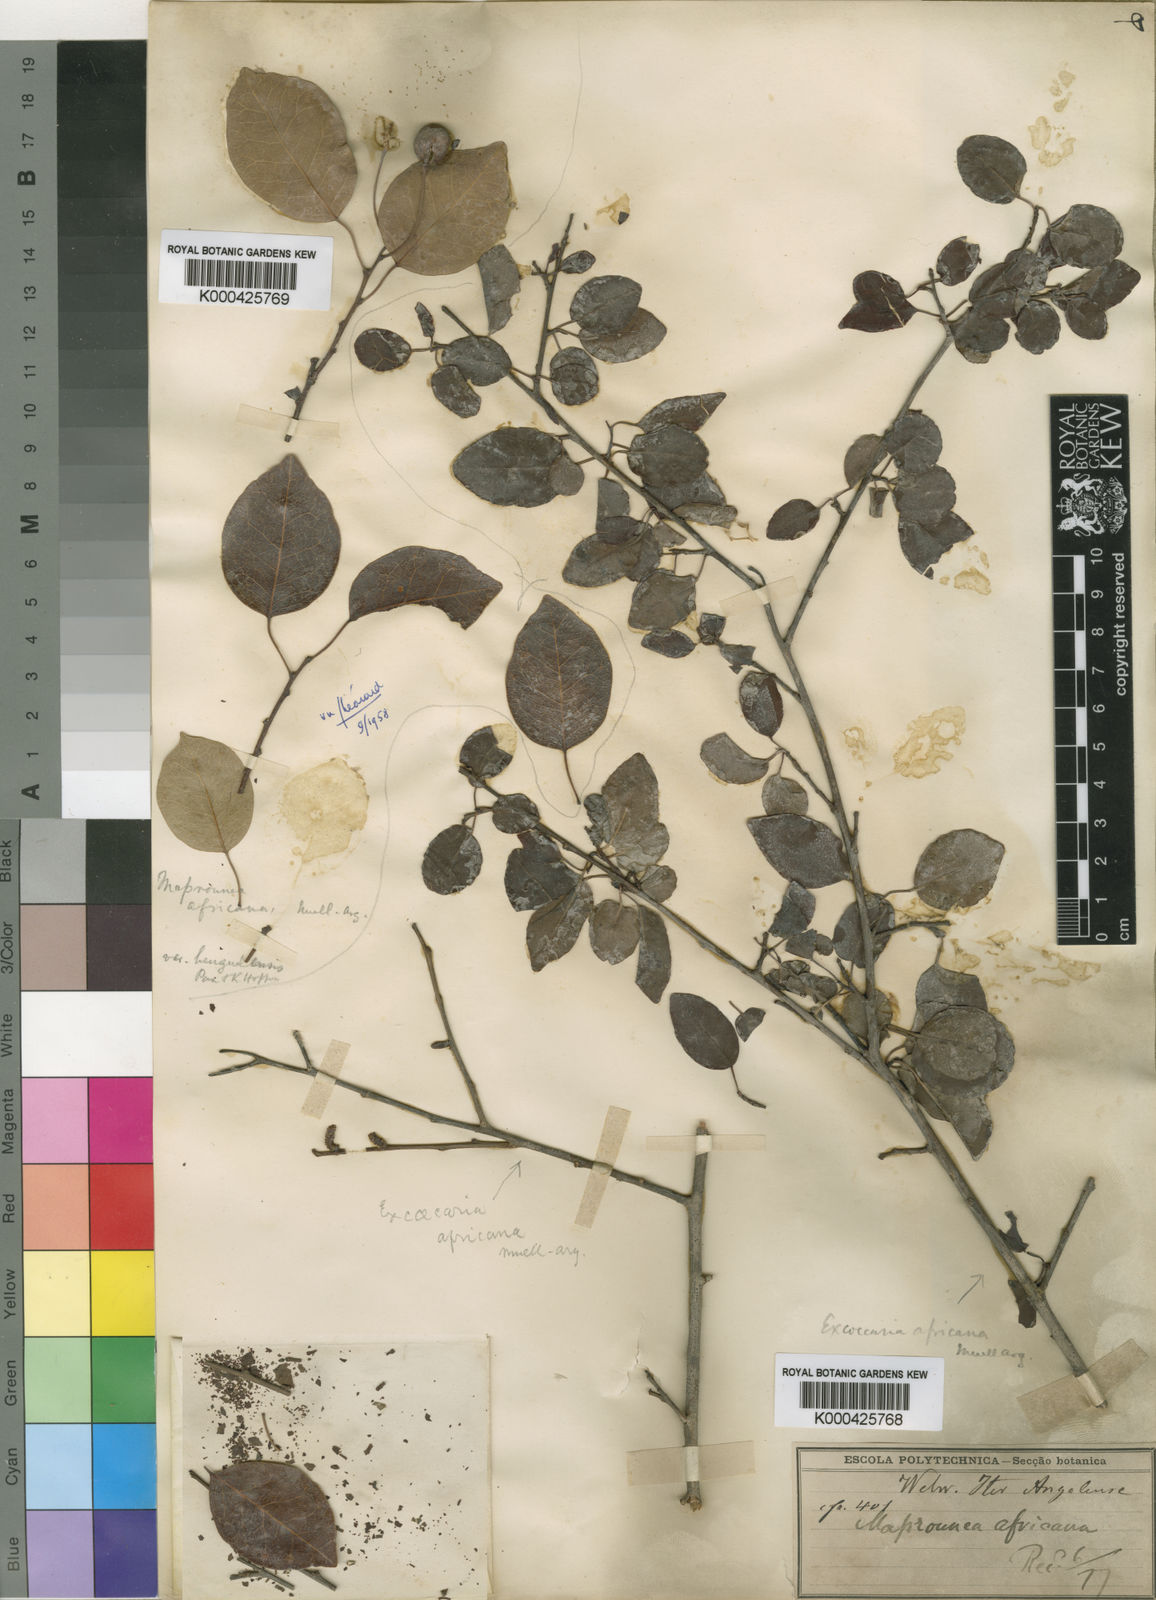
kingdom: Plantae
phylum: Tracheophyta
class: Magnoliopsida
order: Malpighiales
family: Euphorbiaceae
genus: Maprounea
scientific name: Maprounea
